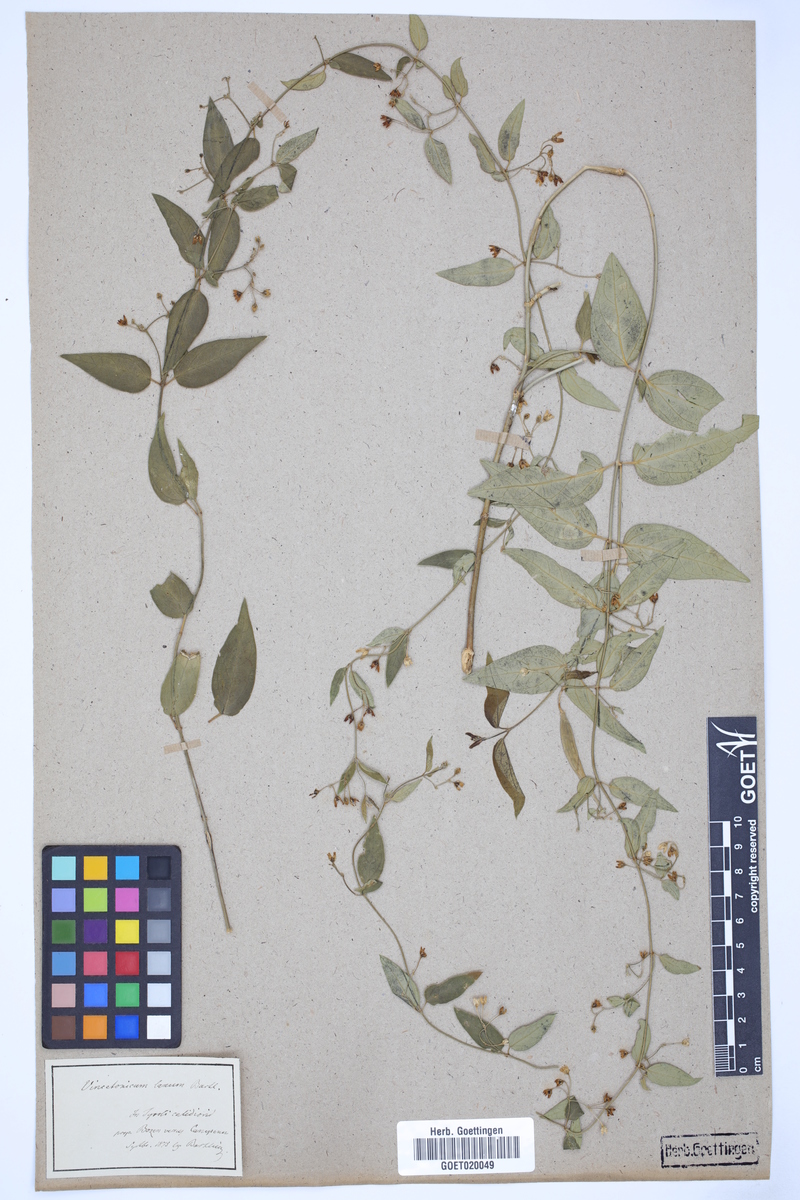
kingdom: Plantae
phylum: Tracheophyta
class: Magnoliopsida
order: Gentianales
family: Apocynaceae
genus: Vincetoxicum
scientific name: Vincetoxicum laxum
